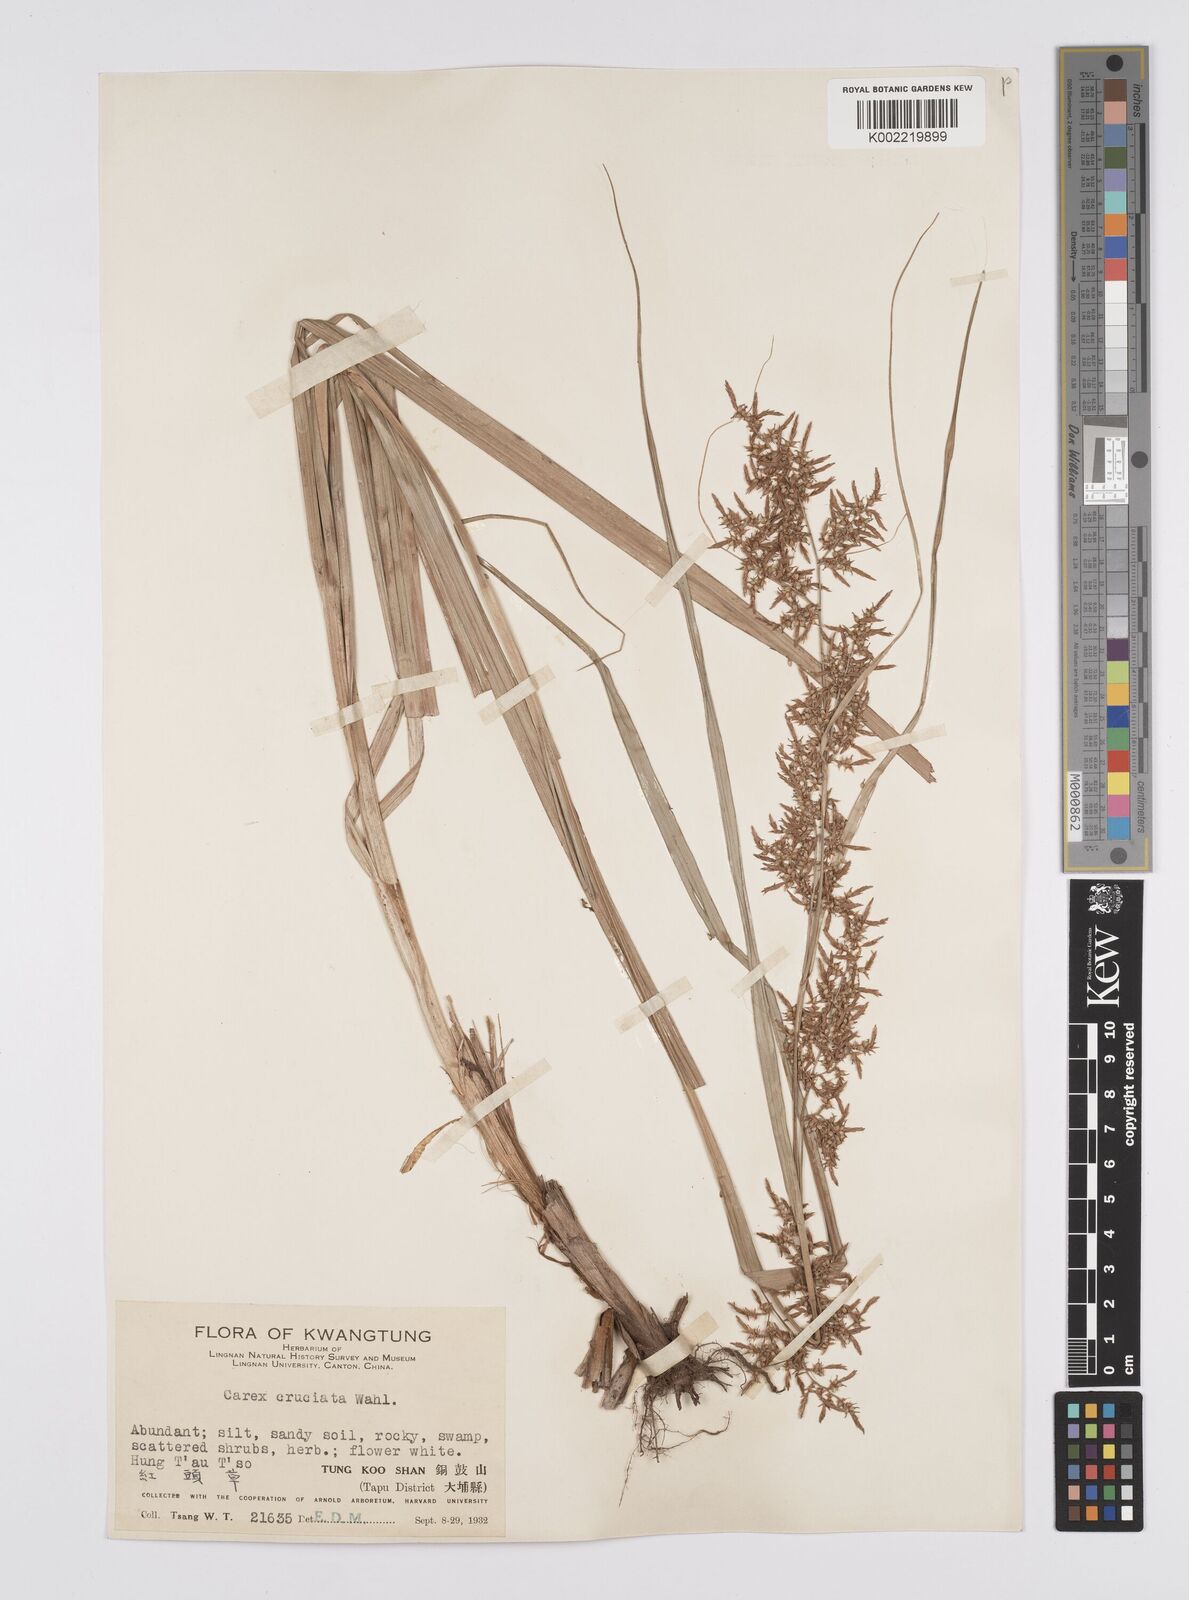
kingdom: Plantae
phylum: Tracheophyta
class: Liliopsida
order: Poales
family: Cyperaceae
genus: Carex
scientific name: Carex cruciata
